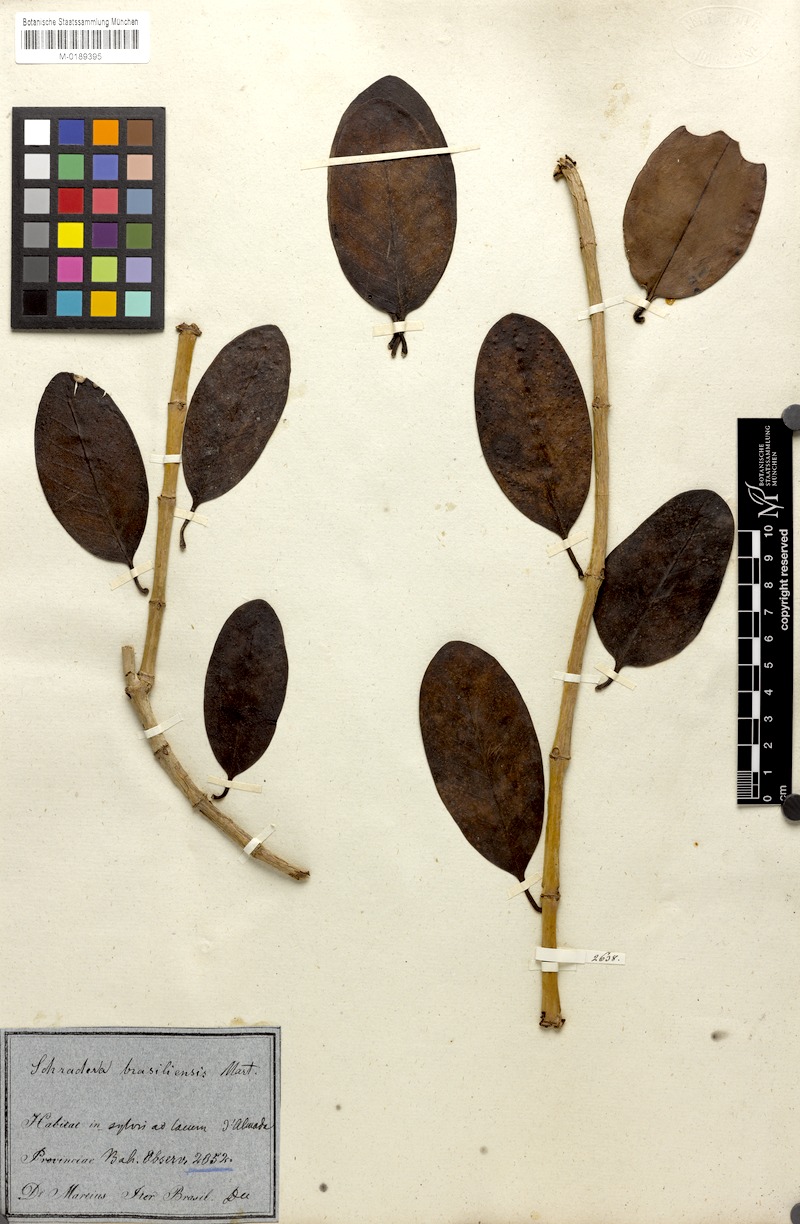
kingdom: Plantae
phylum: Tracheophyta
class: Magnoliopsida
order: Gentianales
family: Rubiaceae
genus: Schradera
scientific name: Schradera involucrata
